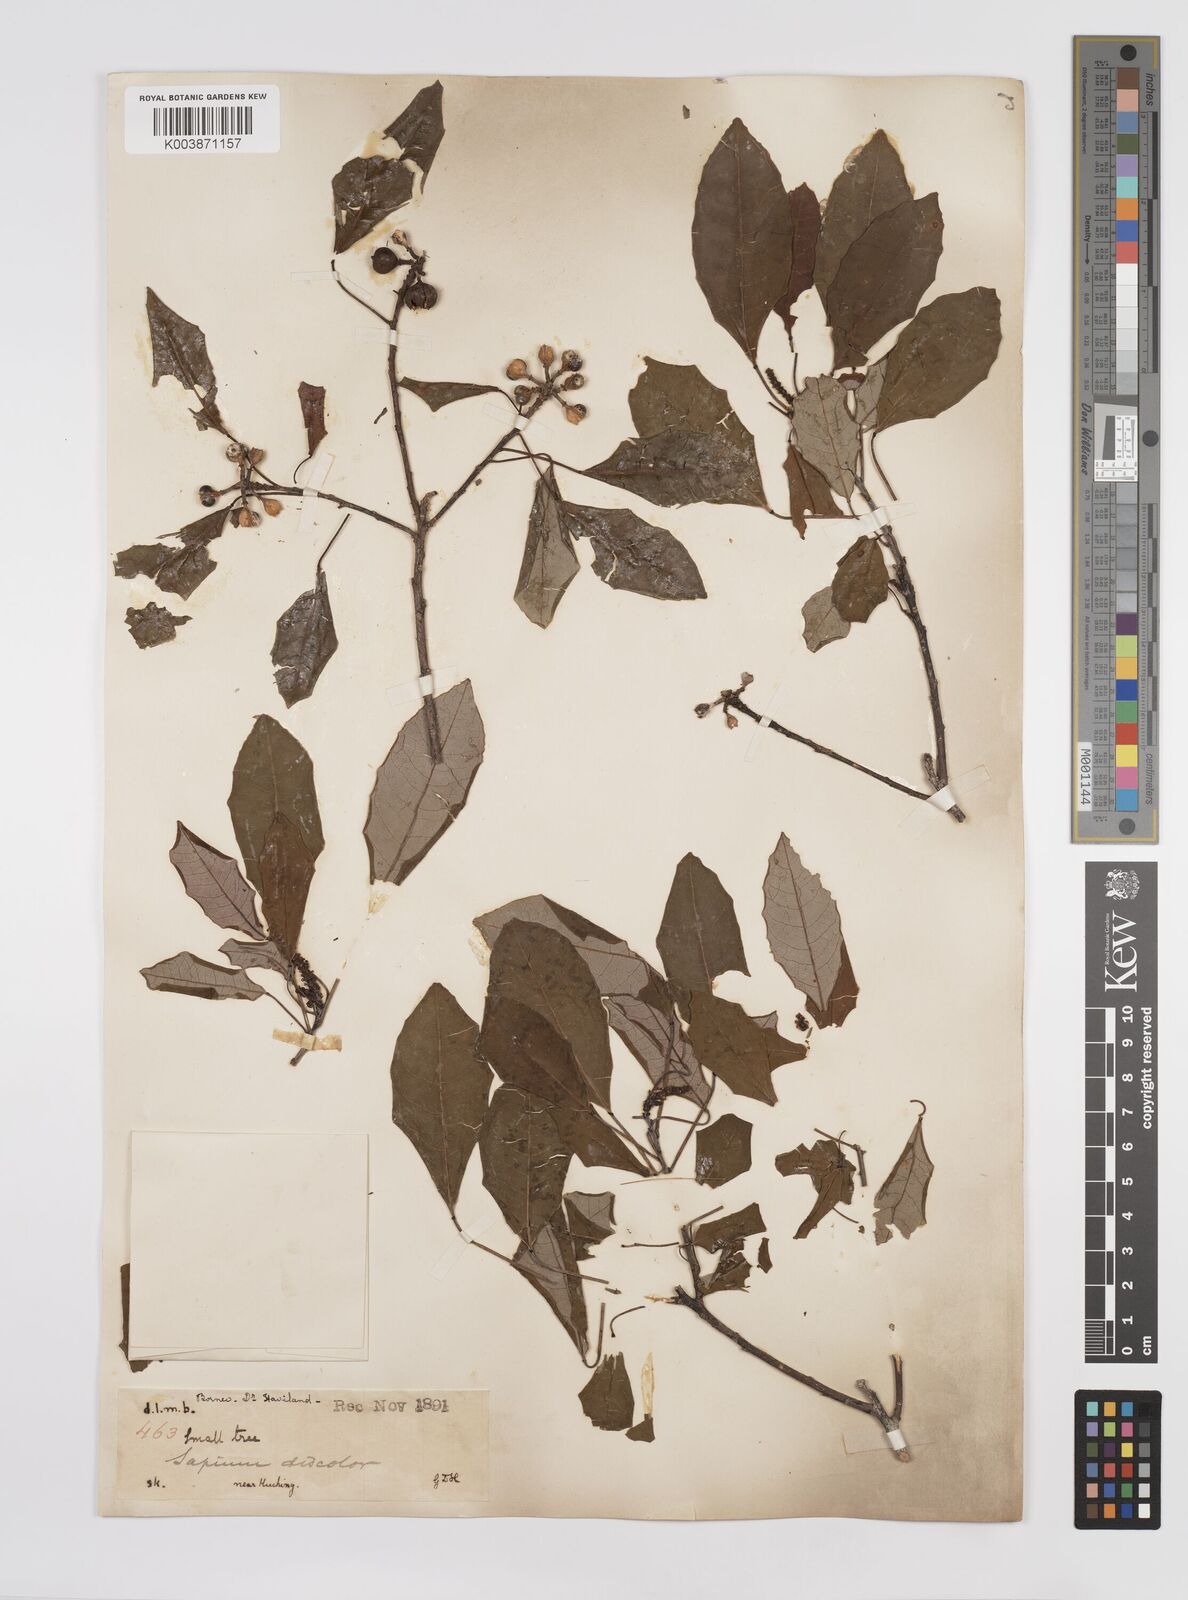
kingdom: Plantae
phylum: Tracheophyta
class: Magnoliopsida
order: Malpighiales
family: Euphorbiaceae
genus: Triadica
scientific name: Triadica cochinchinensis
